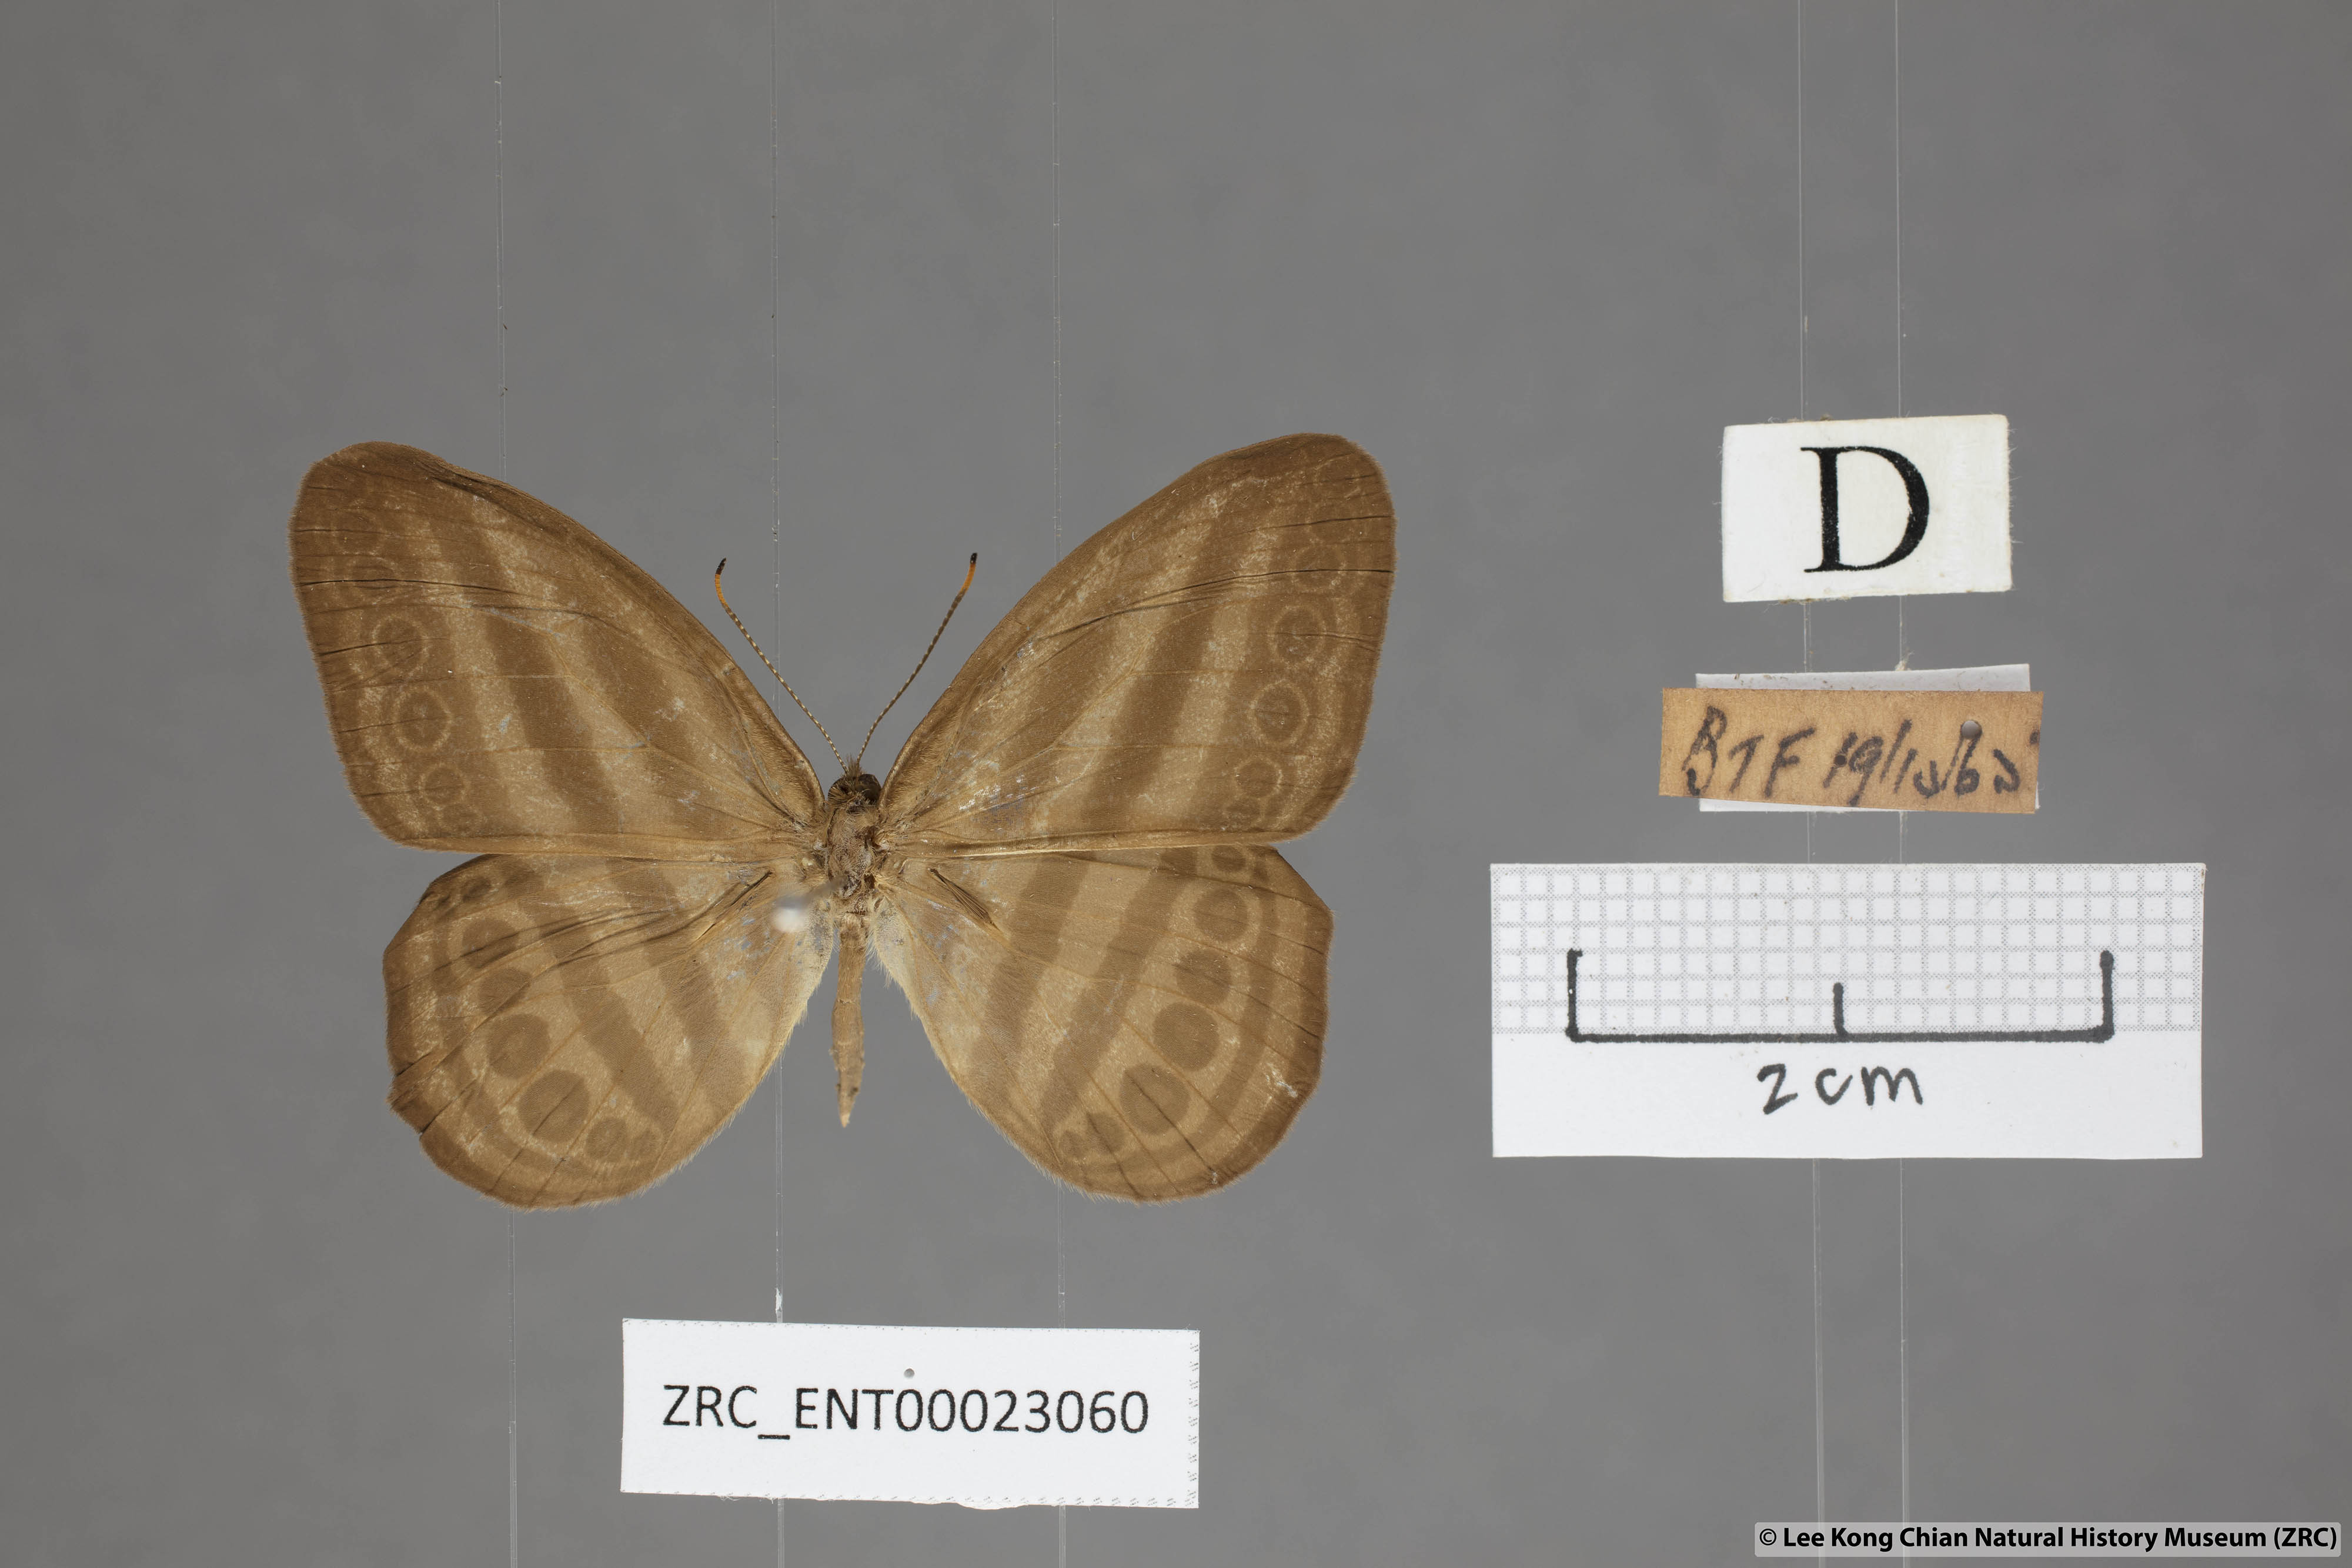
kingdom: Animalia
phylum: Arthropoda
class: Insecta
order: Lepidoptera
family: Nymphalidae
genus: Ragadia
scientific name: Ragadia makata
